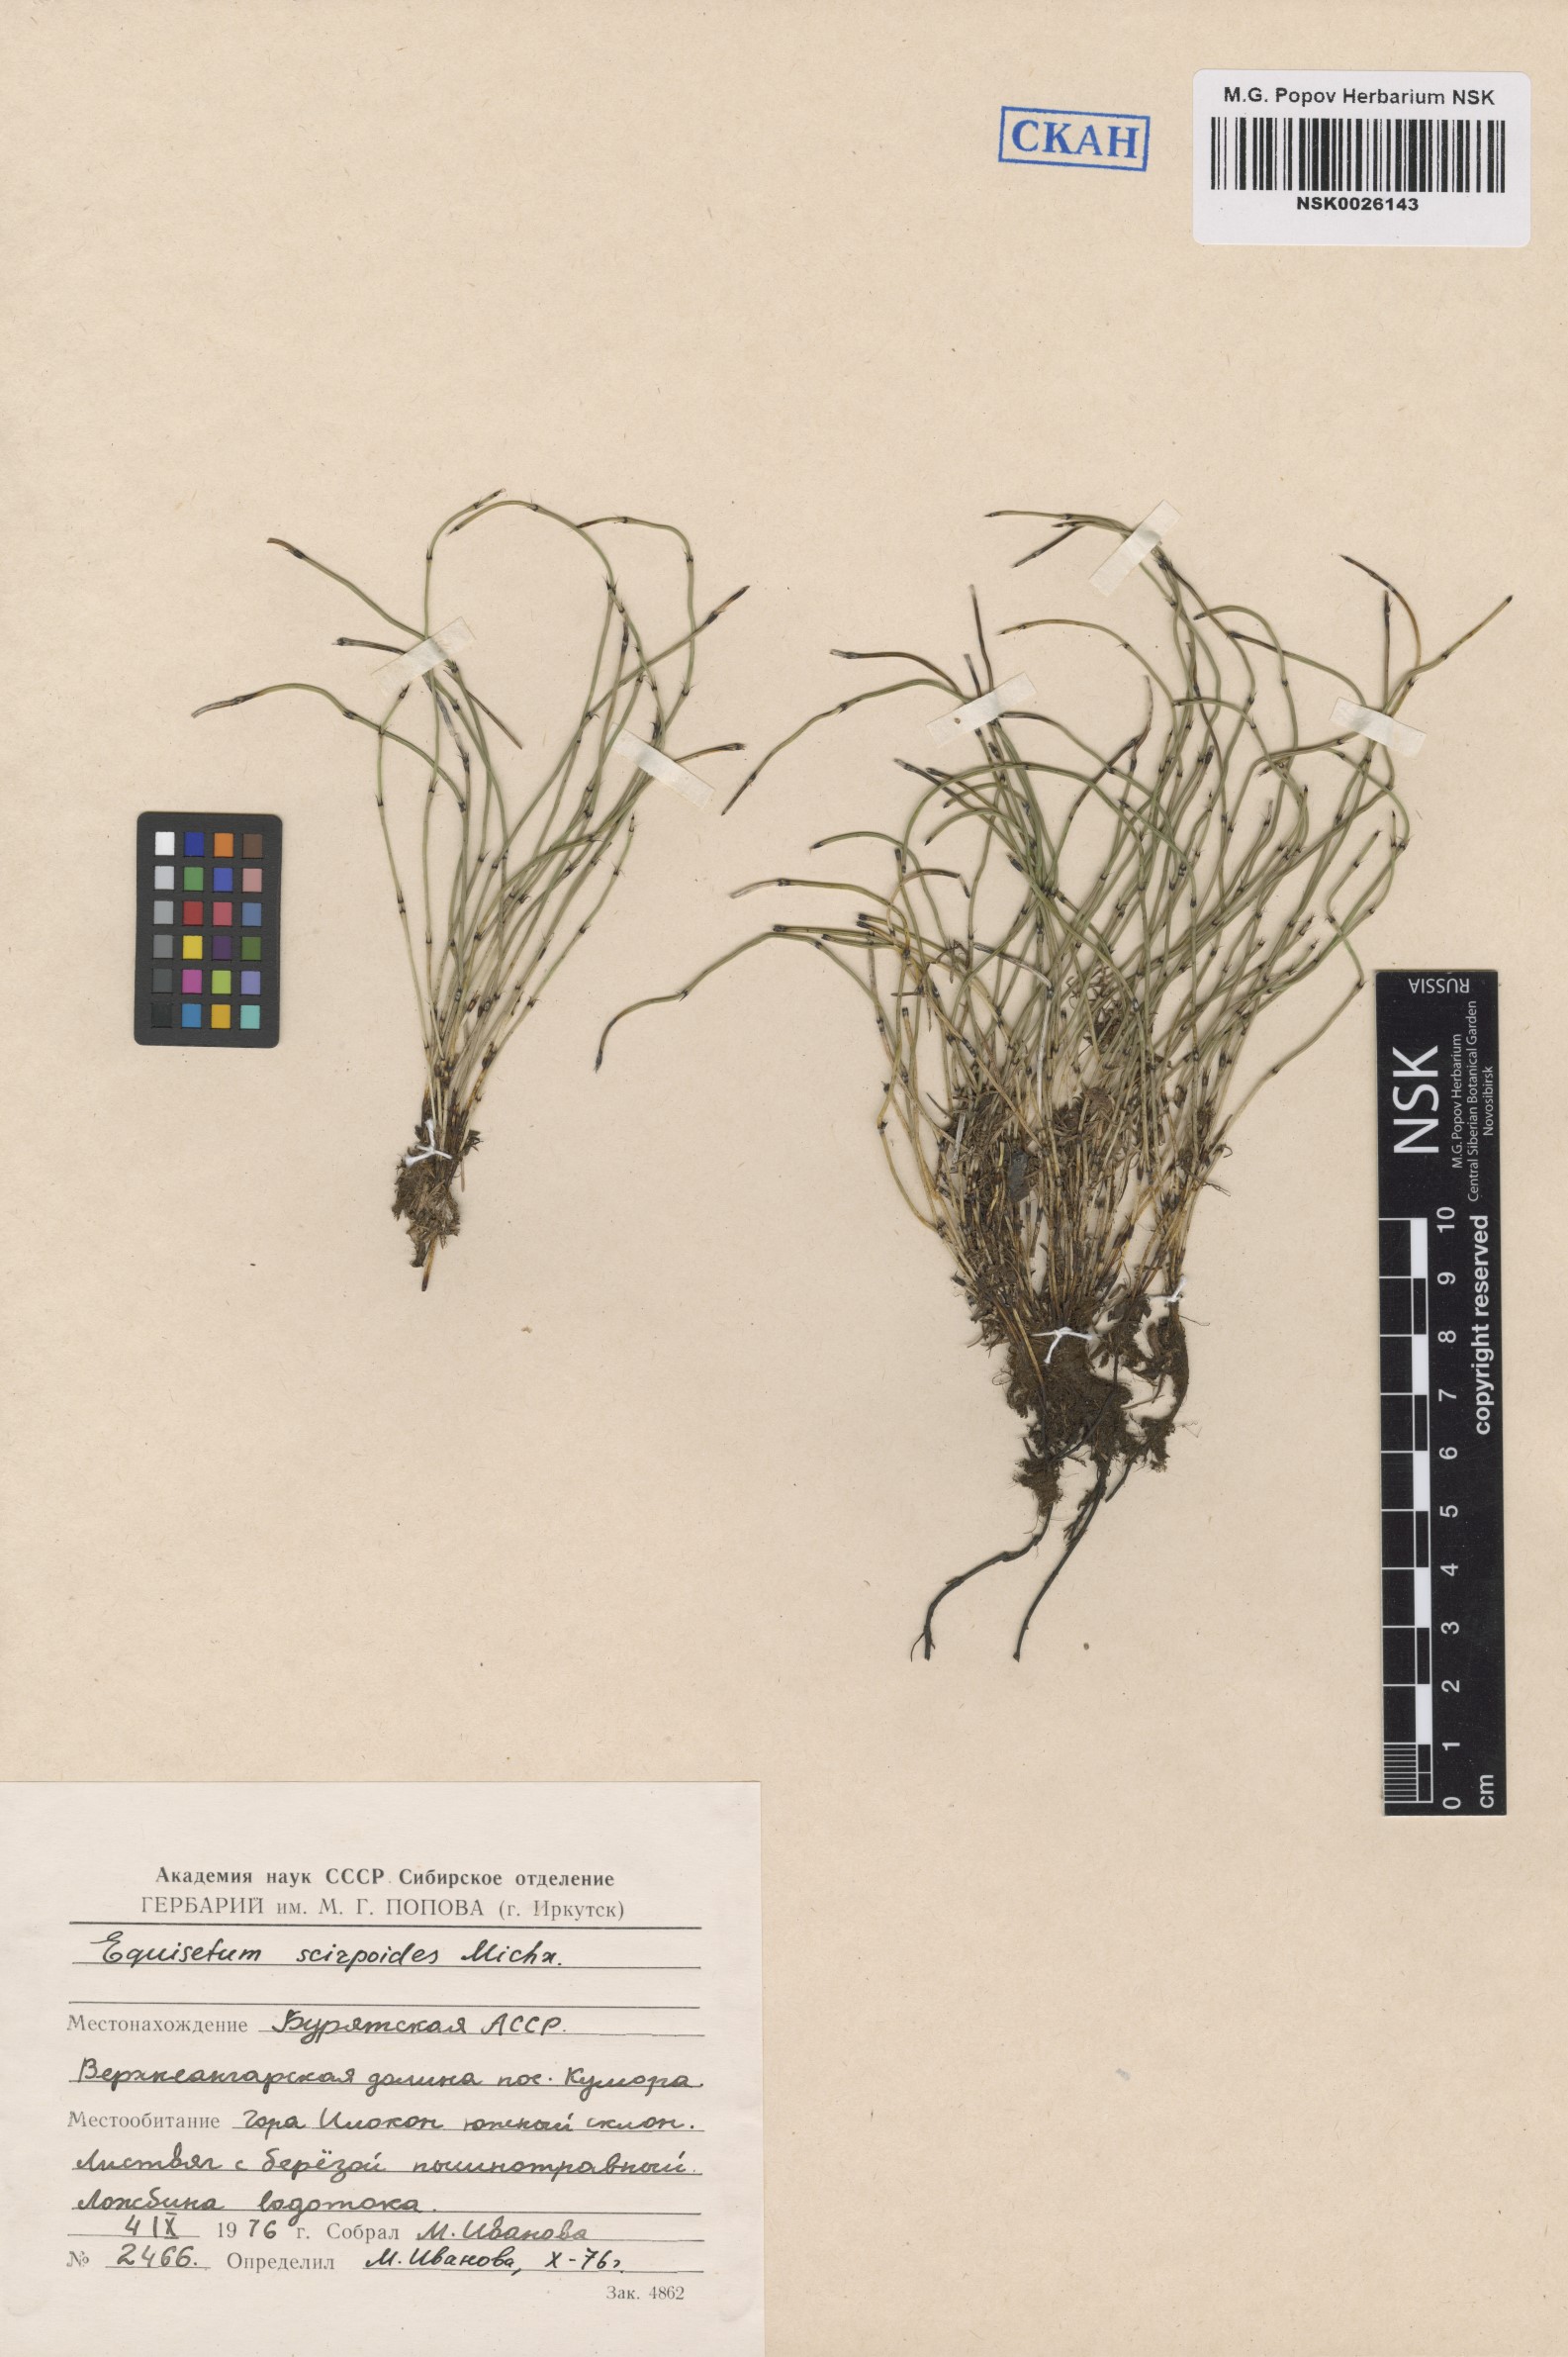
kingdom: Plantae
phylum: Tracheophyta
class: Polypodiopsida
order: Equisetales
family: Equisetaceae
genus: Equisetum
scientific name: Equisetum scirpoides
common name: Delicate horsetail
